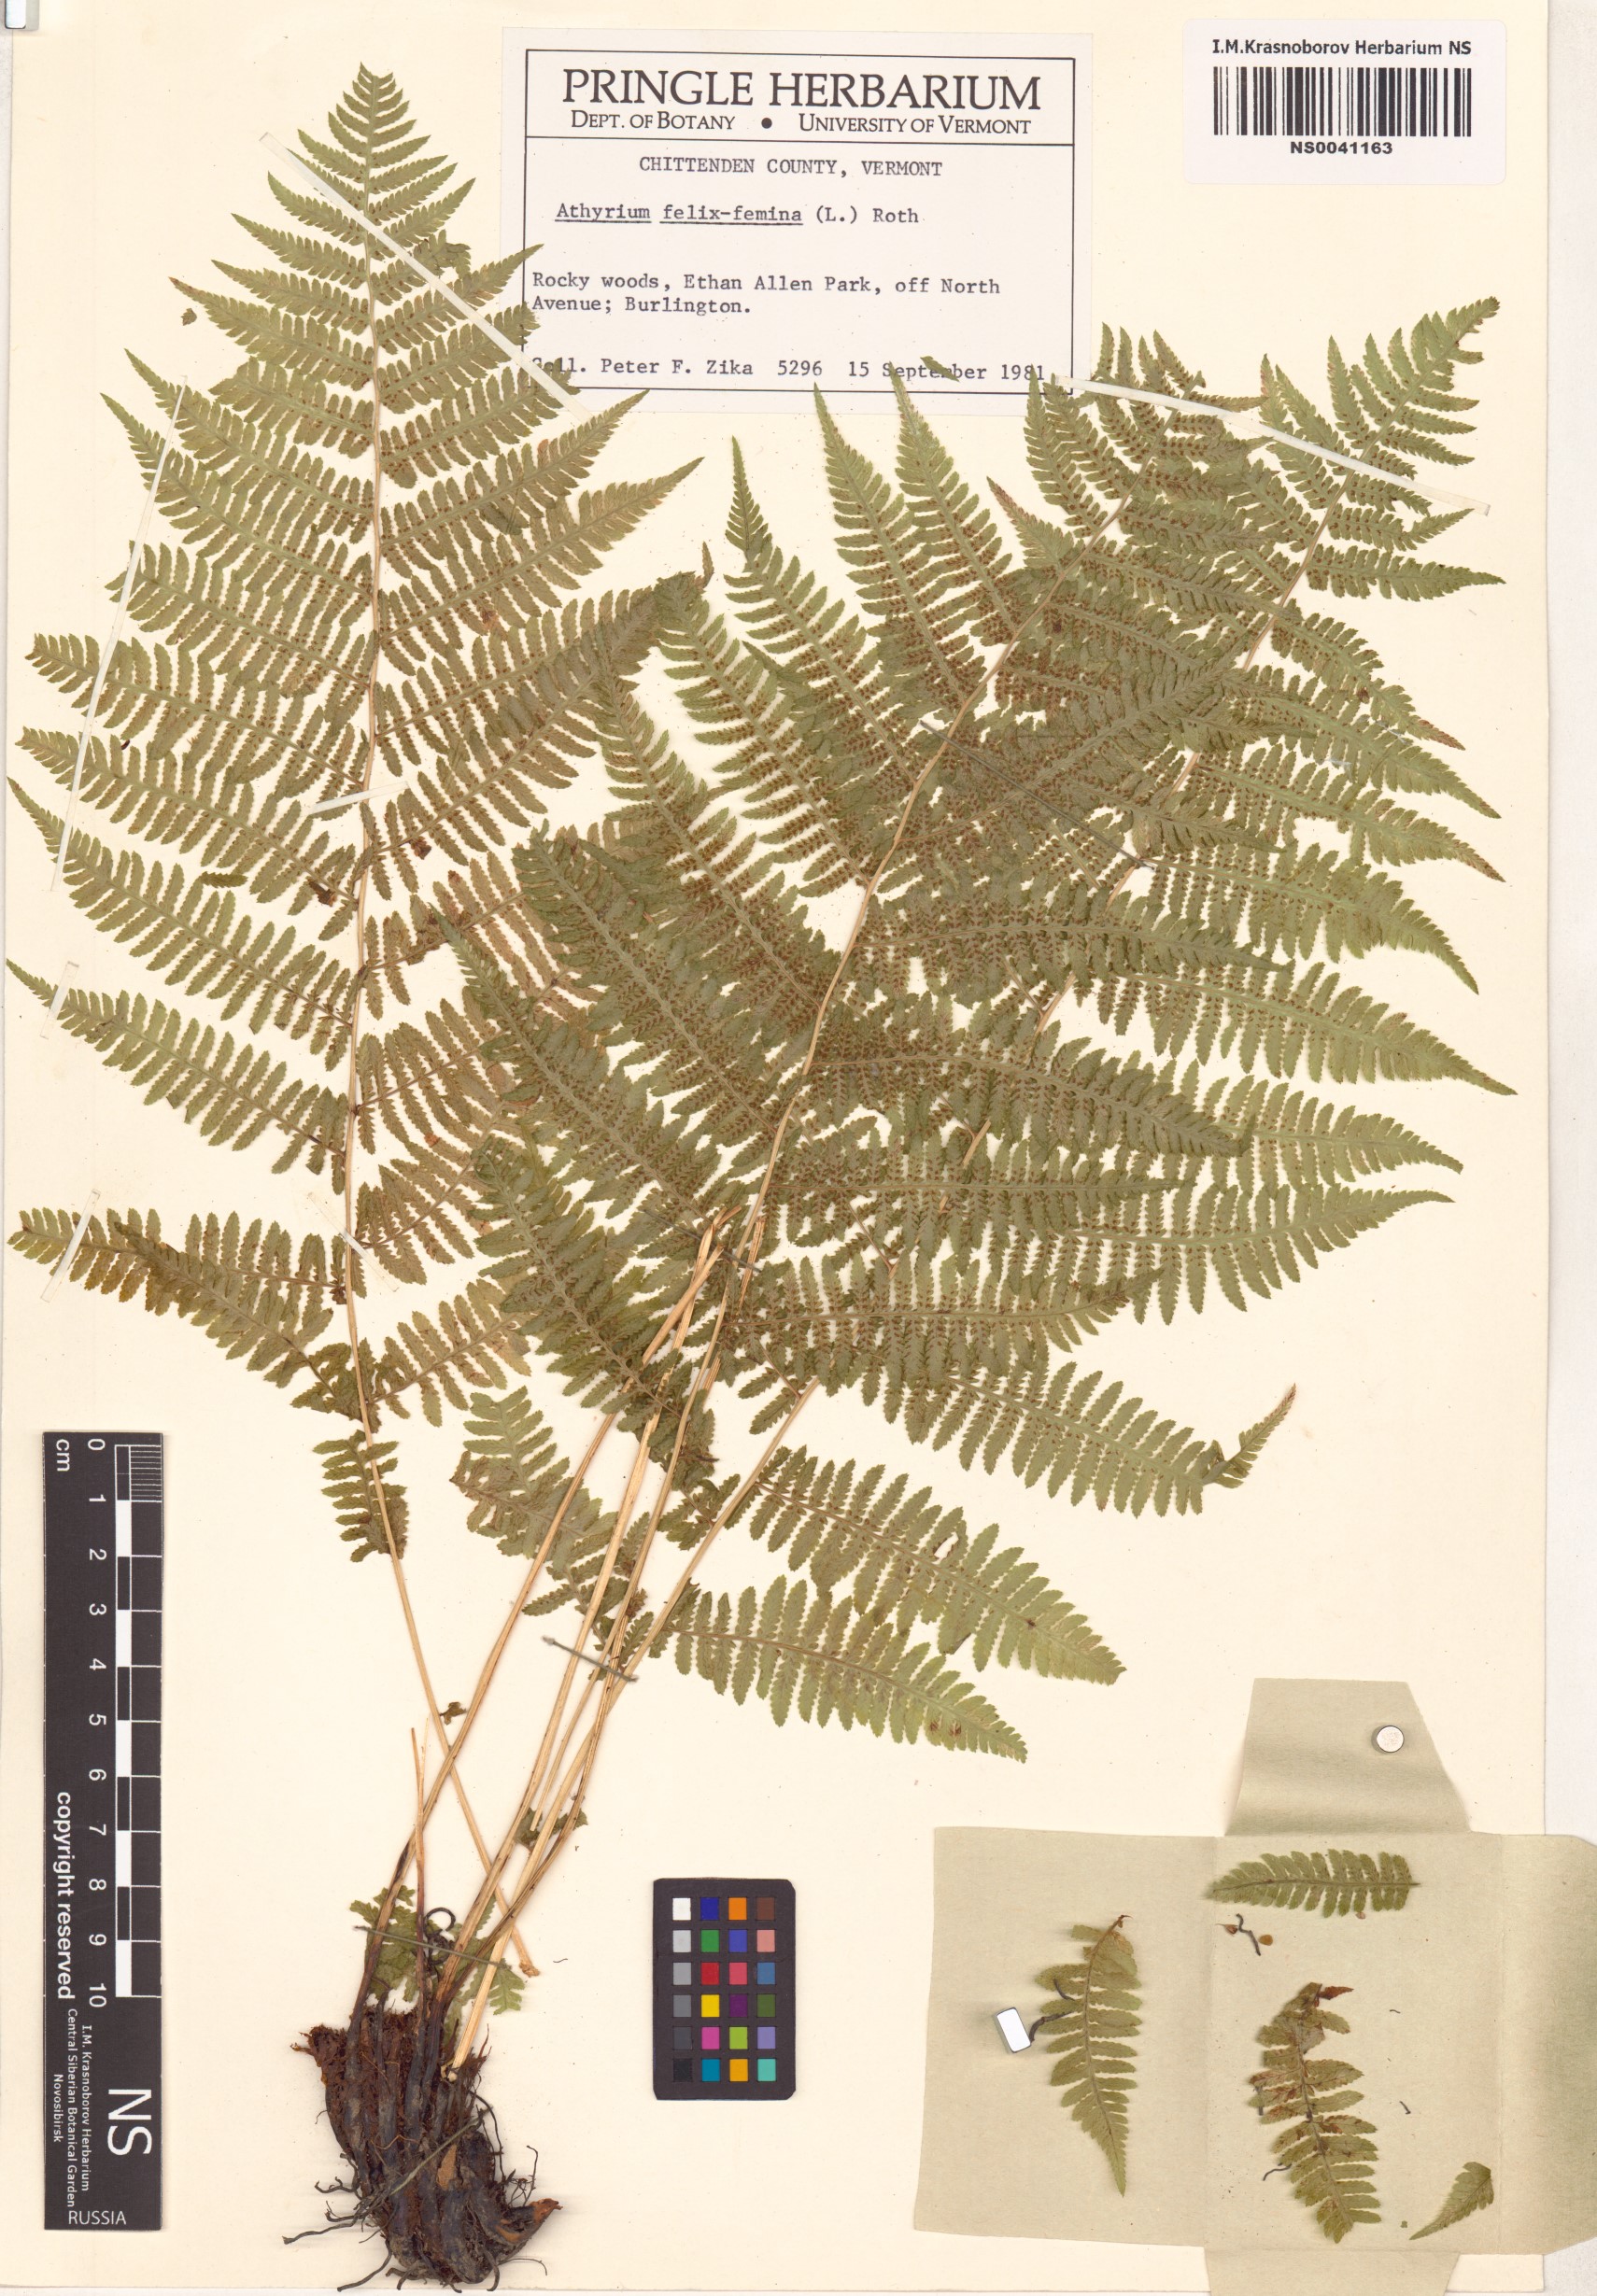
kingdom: Plantae
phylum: Tracheophyta
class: Polypodiopsida
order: Polypodiales
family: Athyriaceae
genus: Athyrium
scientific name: Athyrium filix-femina
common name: Lady fern
